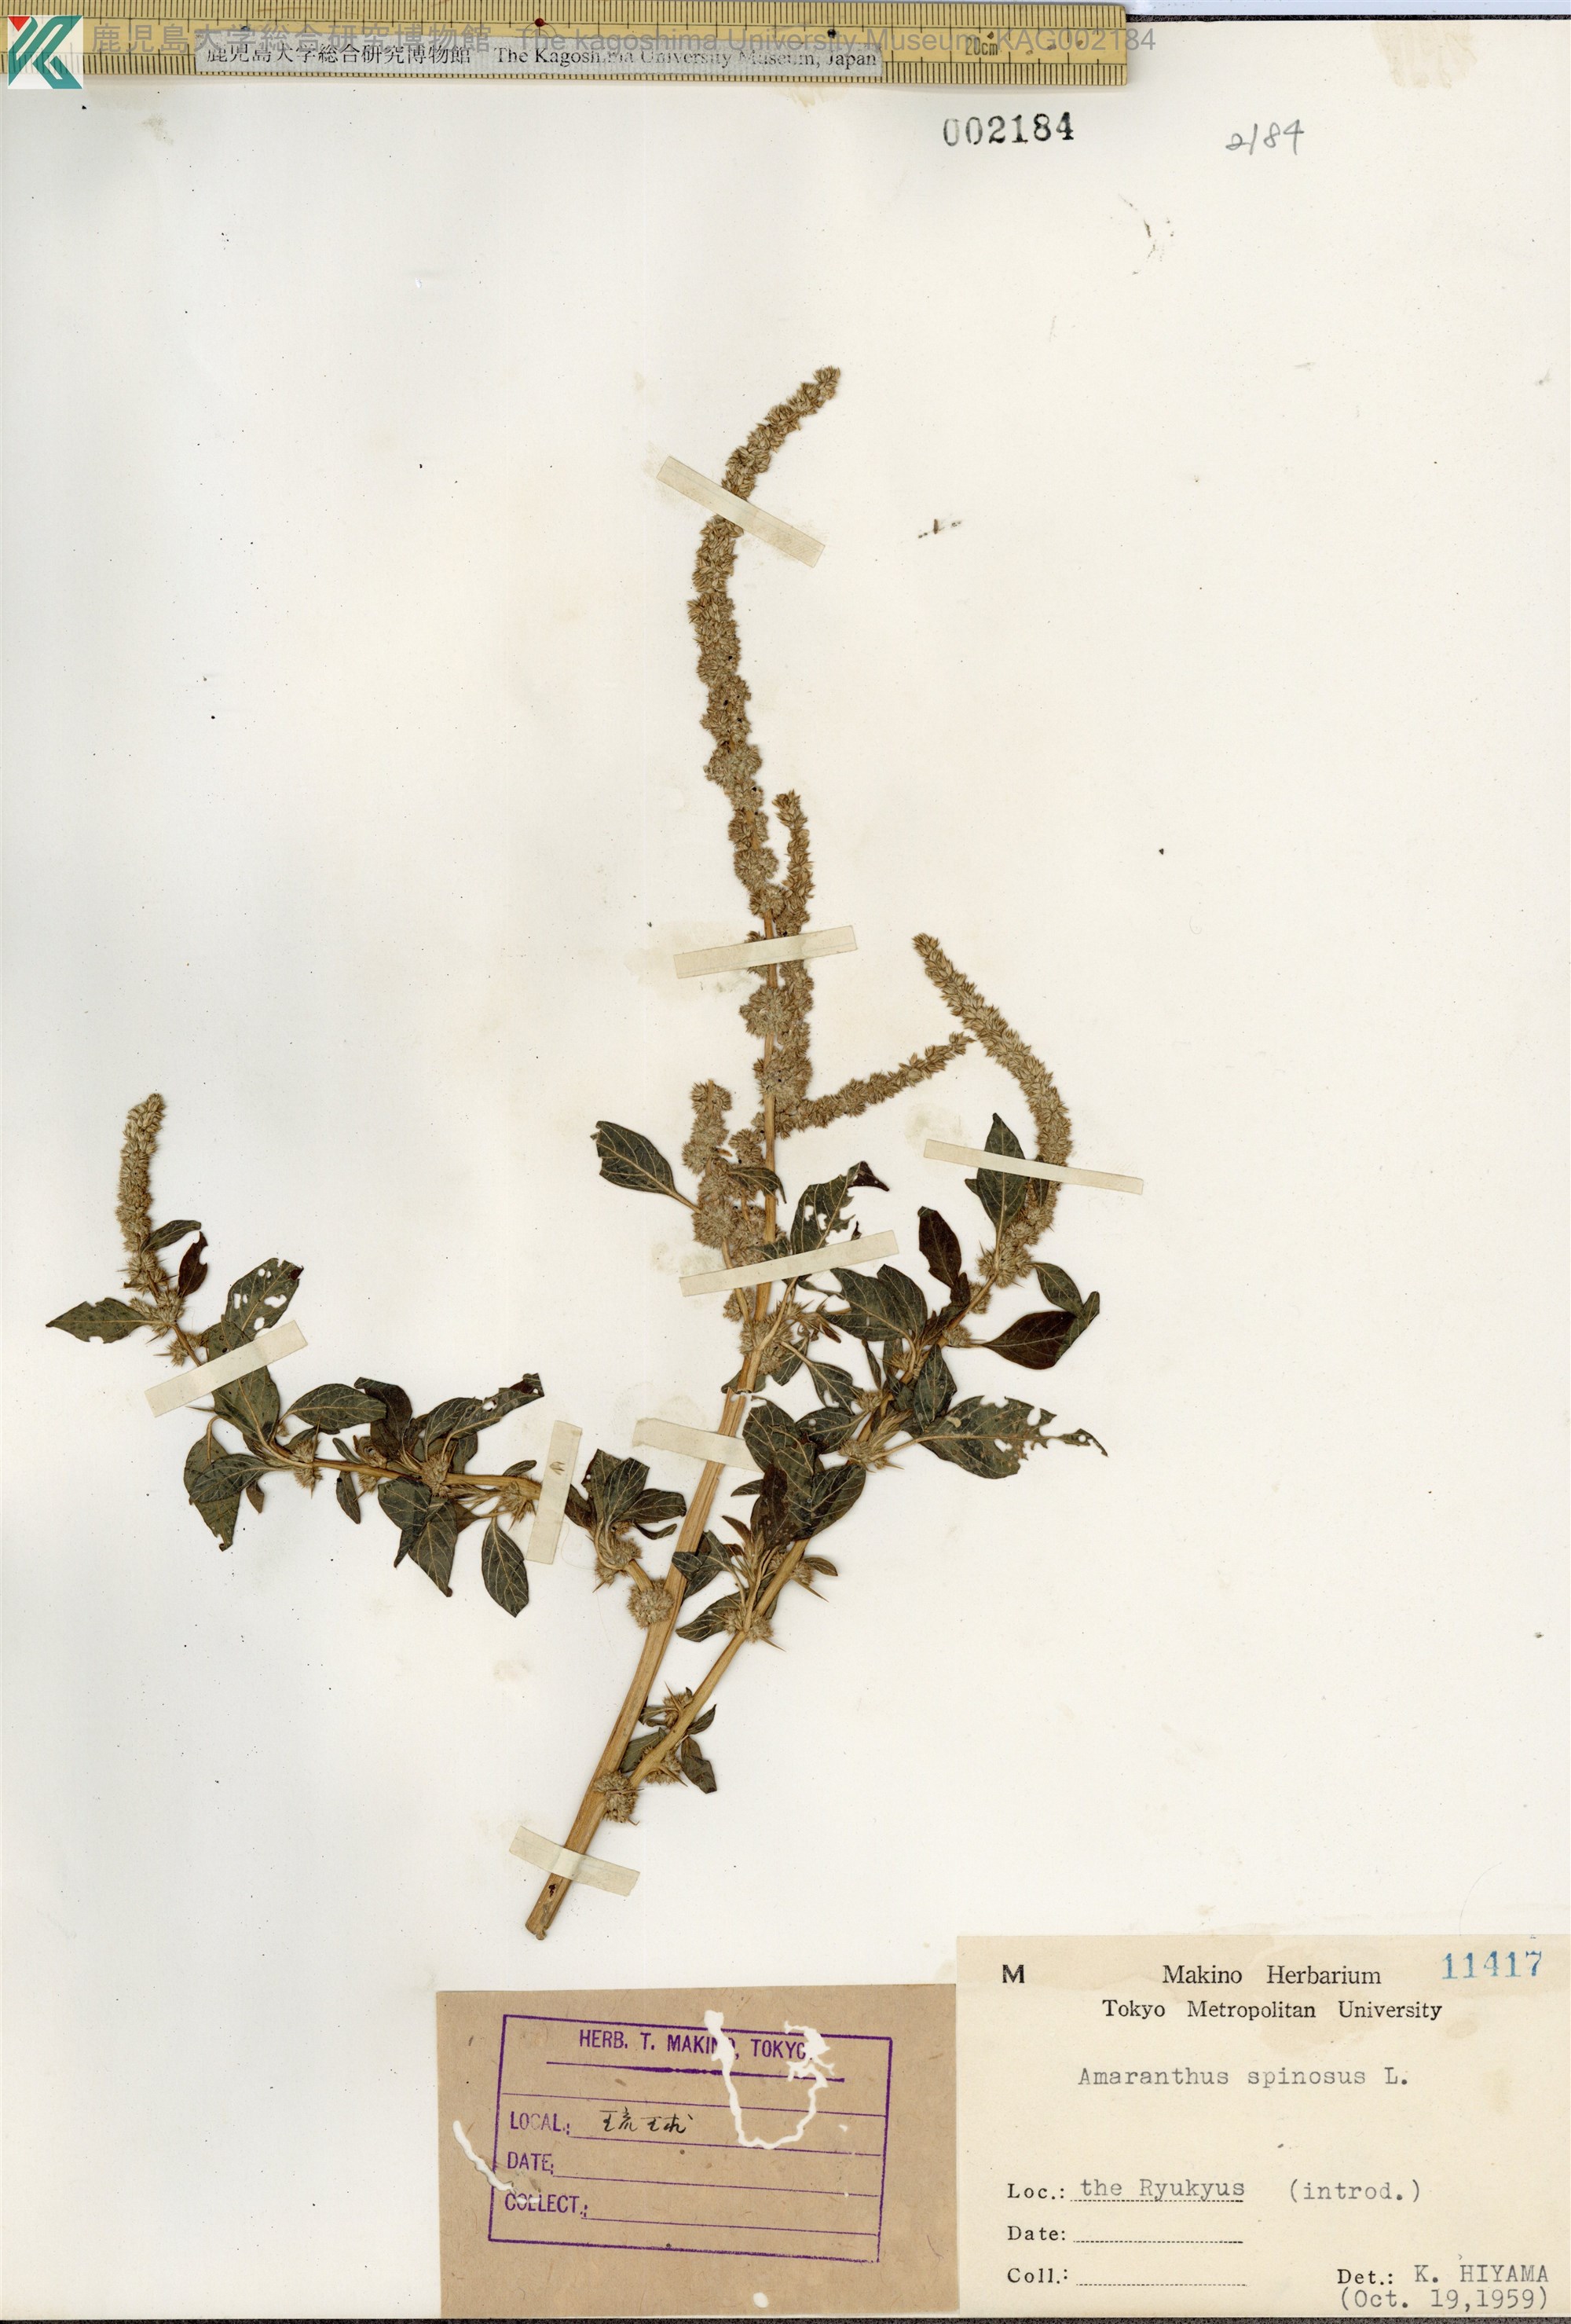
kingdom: Plantae
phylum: Tracheophyta
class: Magnoliopsida
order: Caryophyllales
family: Amaranthaceae
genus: Amaranthus
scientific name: Amaranthus spinosus
